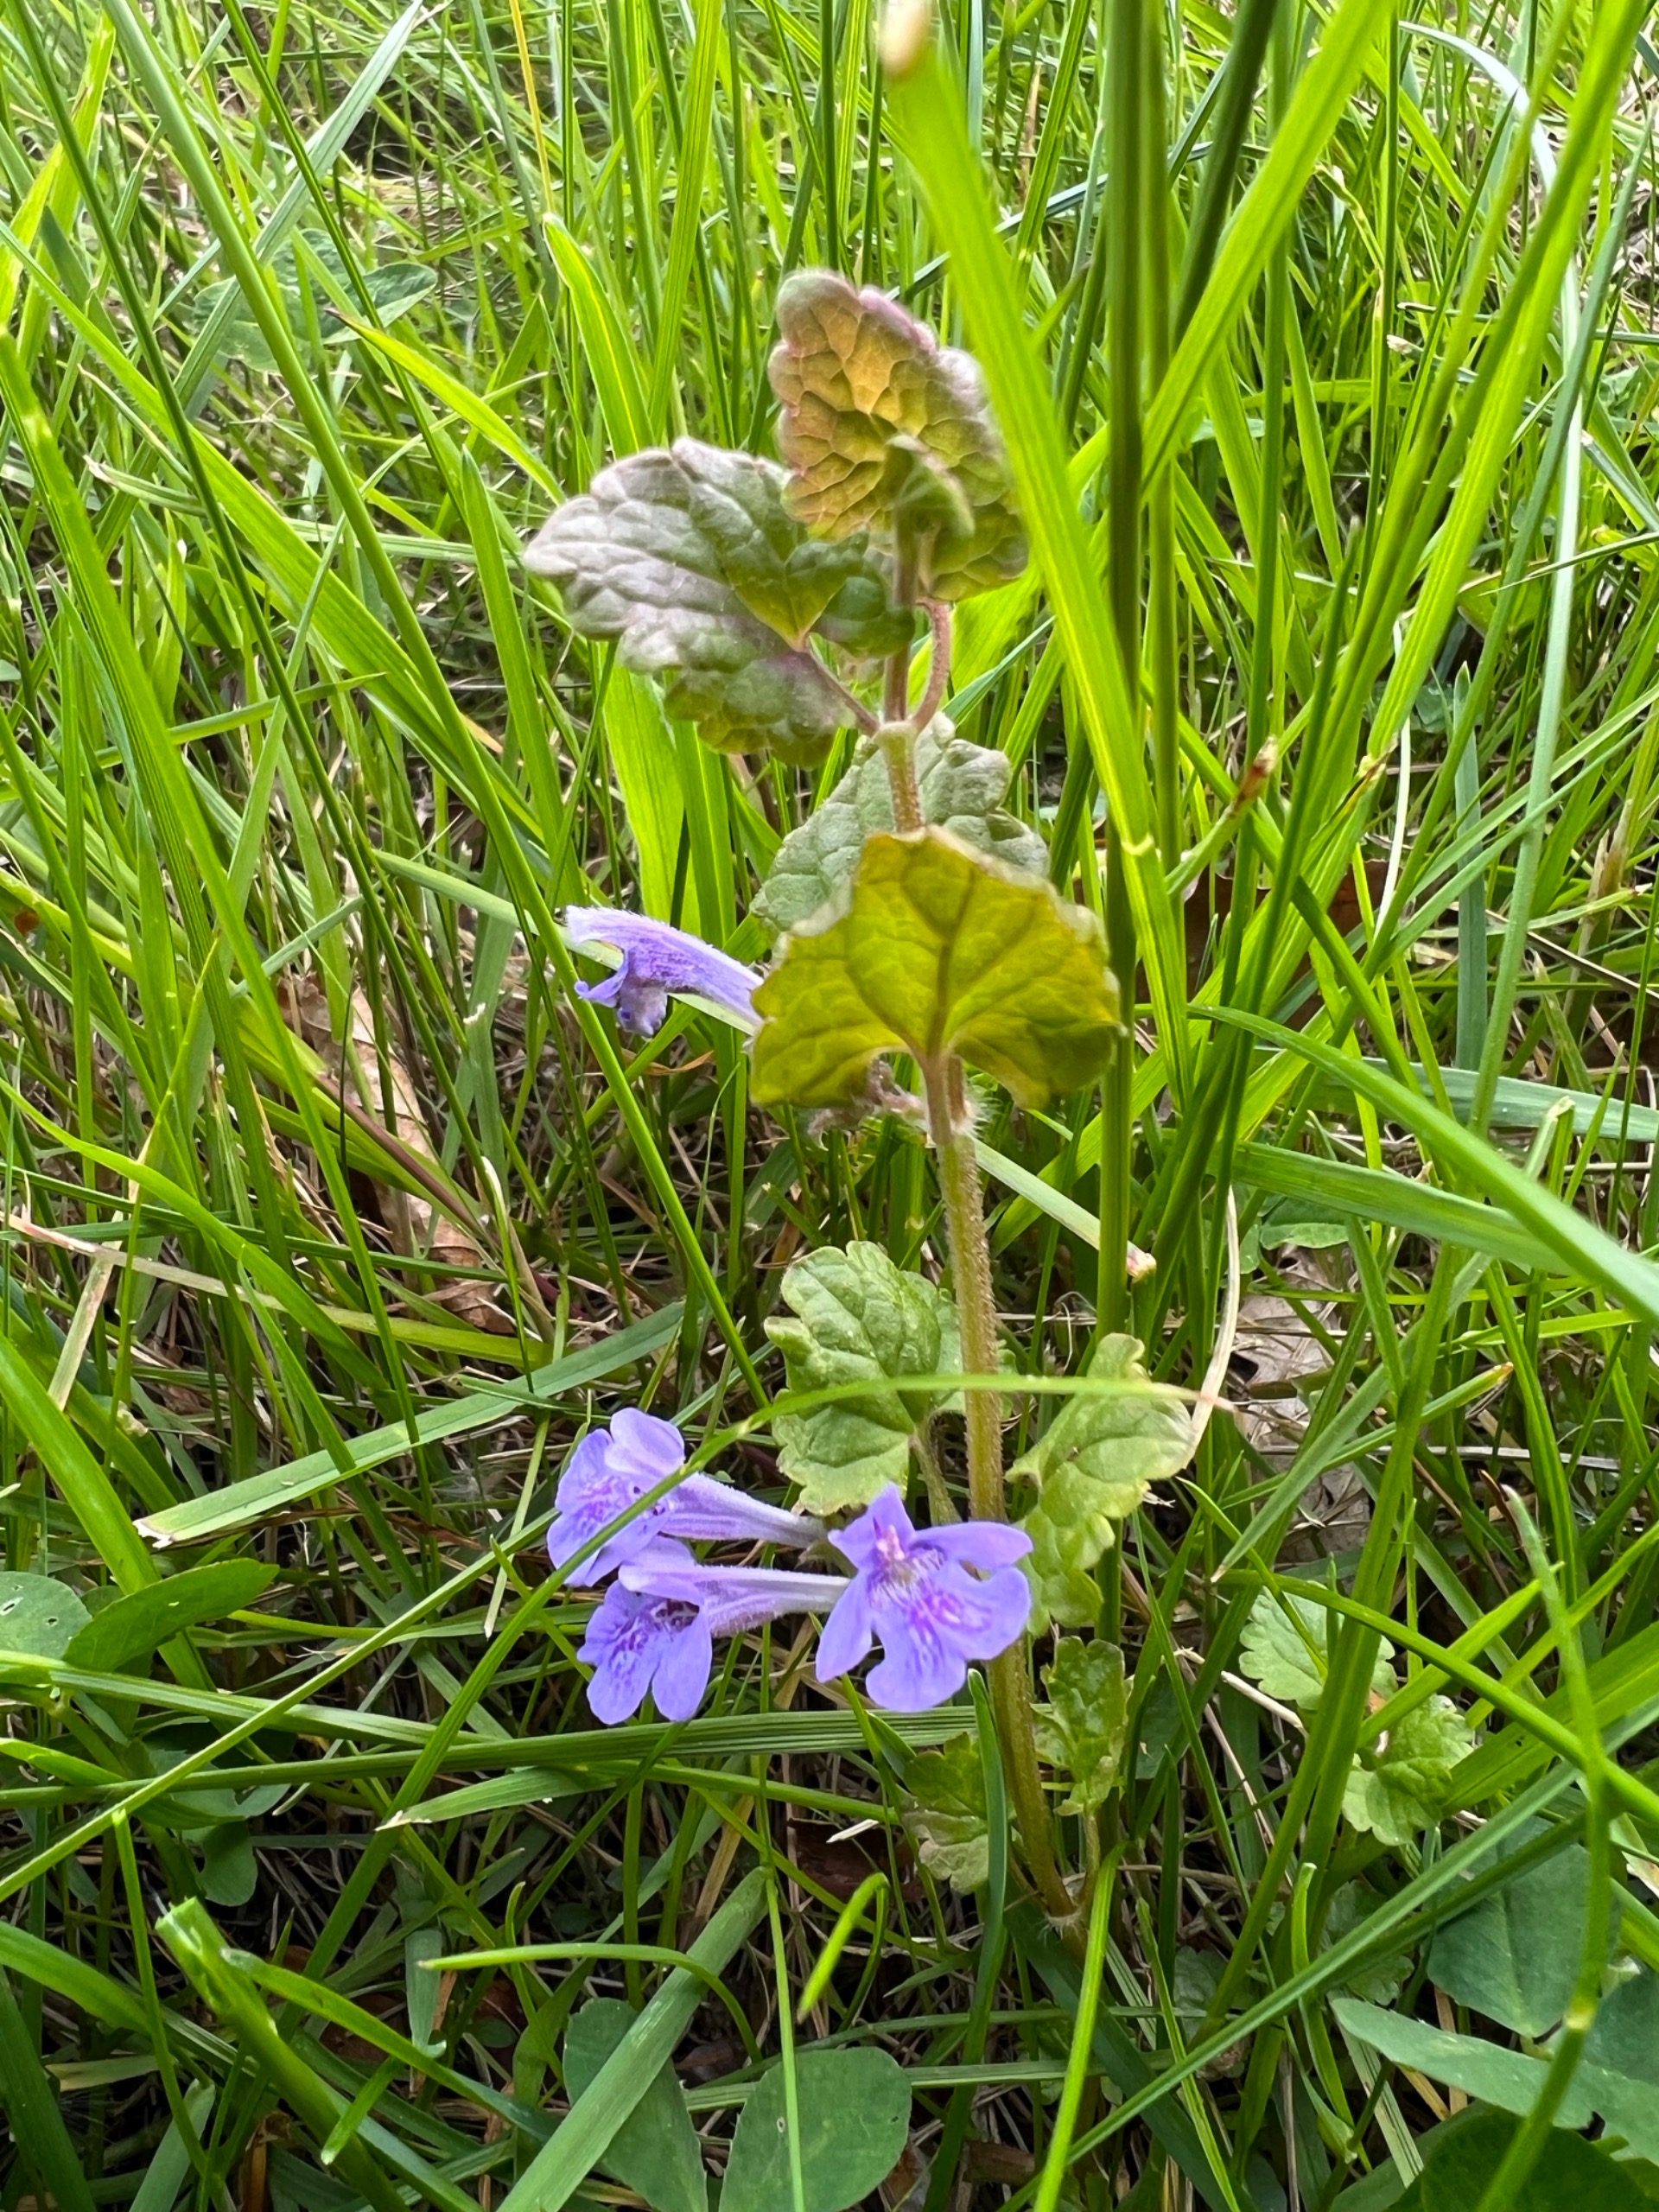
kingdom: Plantae
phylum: Tracheophyta
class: Magnoliopsida
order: Lamiales
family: Lamiaceae
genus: Glechoma
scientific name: Glechoma hederacea
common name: Korsknap
